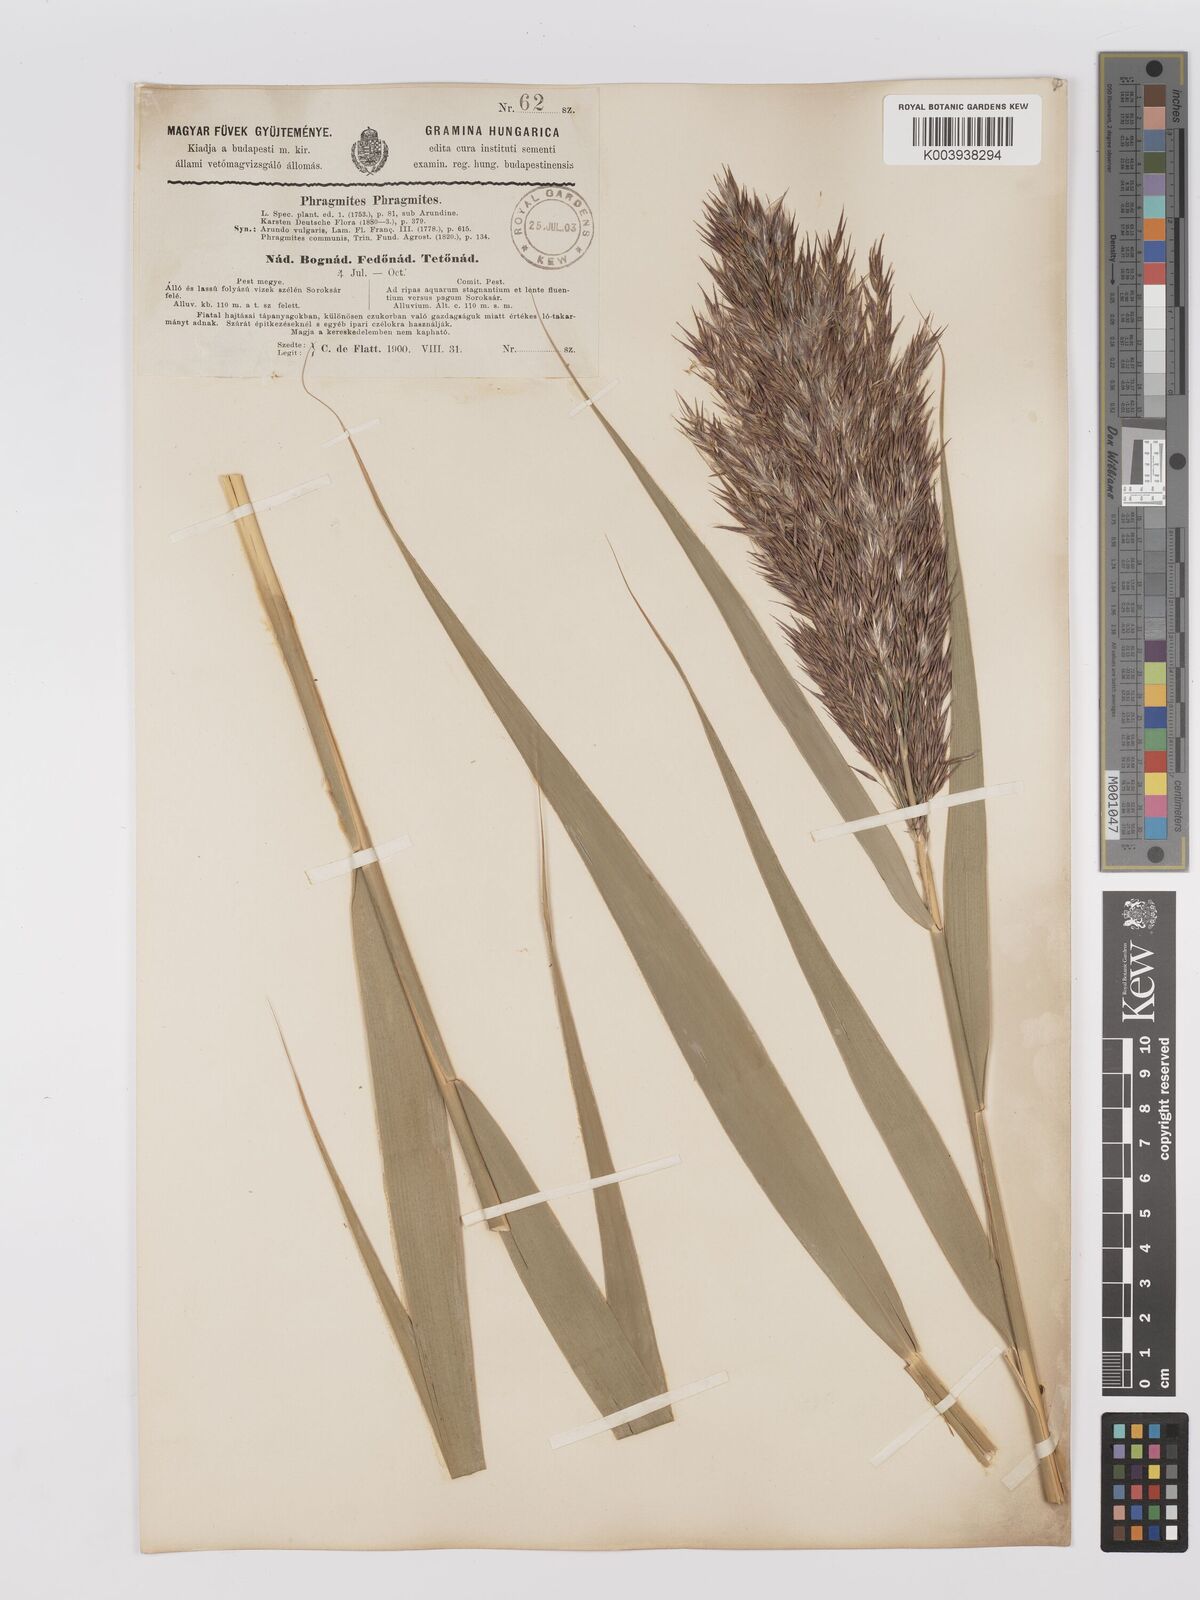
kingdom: Plantae
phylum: Tracheophyta
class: Liliopsida
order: Poales
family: Poaceae
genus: Phragmites
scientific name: Phragmites australis
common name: Common reed
